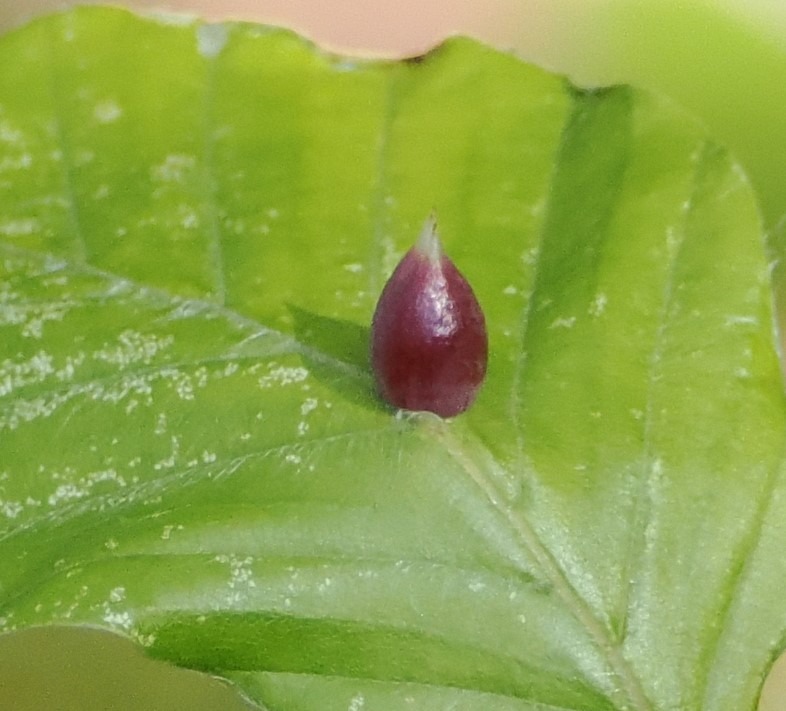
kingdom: Animalia
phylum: Arthropoda
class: Insecta
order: Diptera
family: Cecidomyiidae
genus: Mikiola
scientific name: Mikiola fagi
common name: Bøgegalmyg
